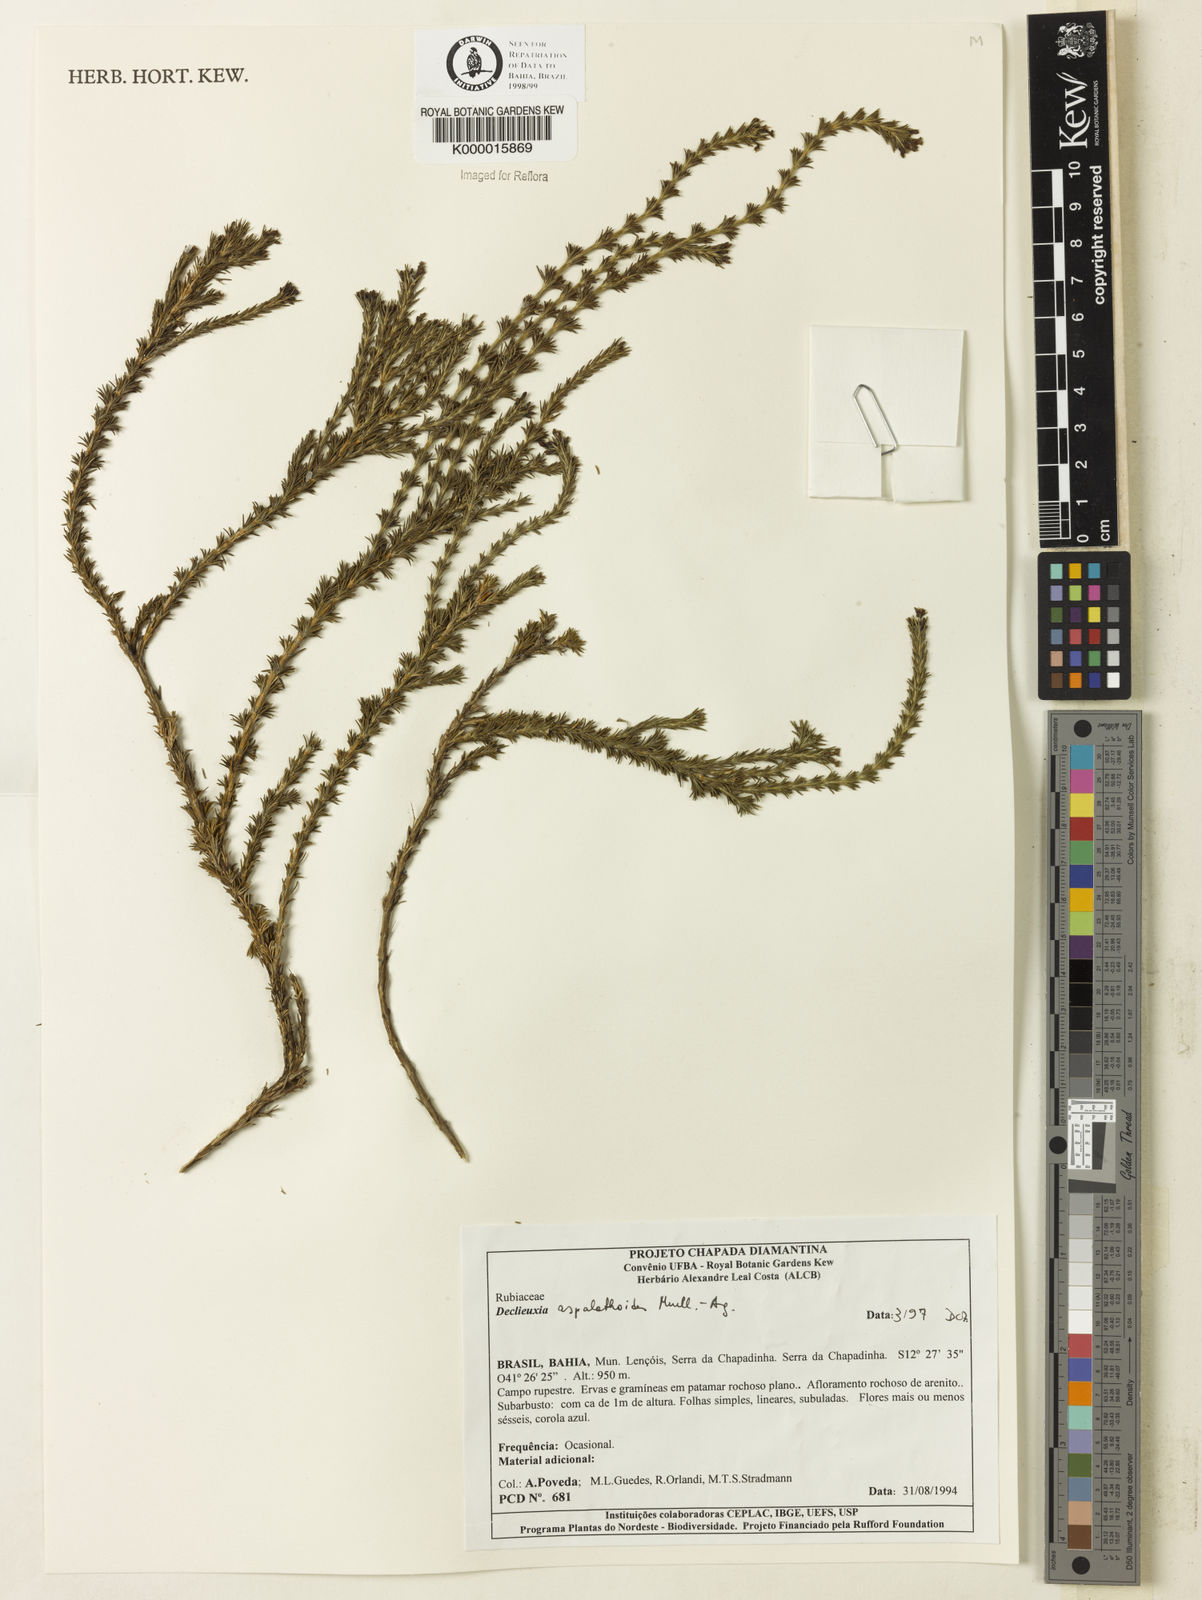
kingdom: Plantae
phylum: Tracheophyta
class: Magnoliopsida
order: Gentianales
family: Rubiaceae
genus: Declieuxia
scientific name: Declieuxia aspalathoides
